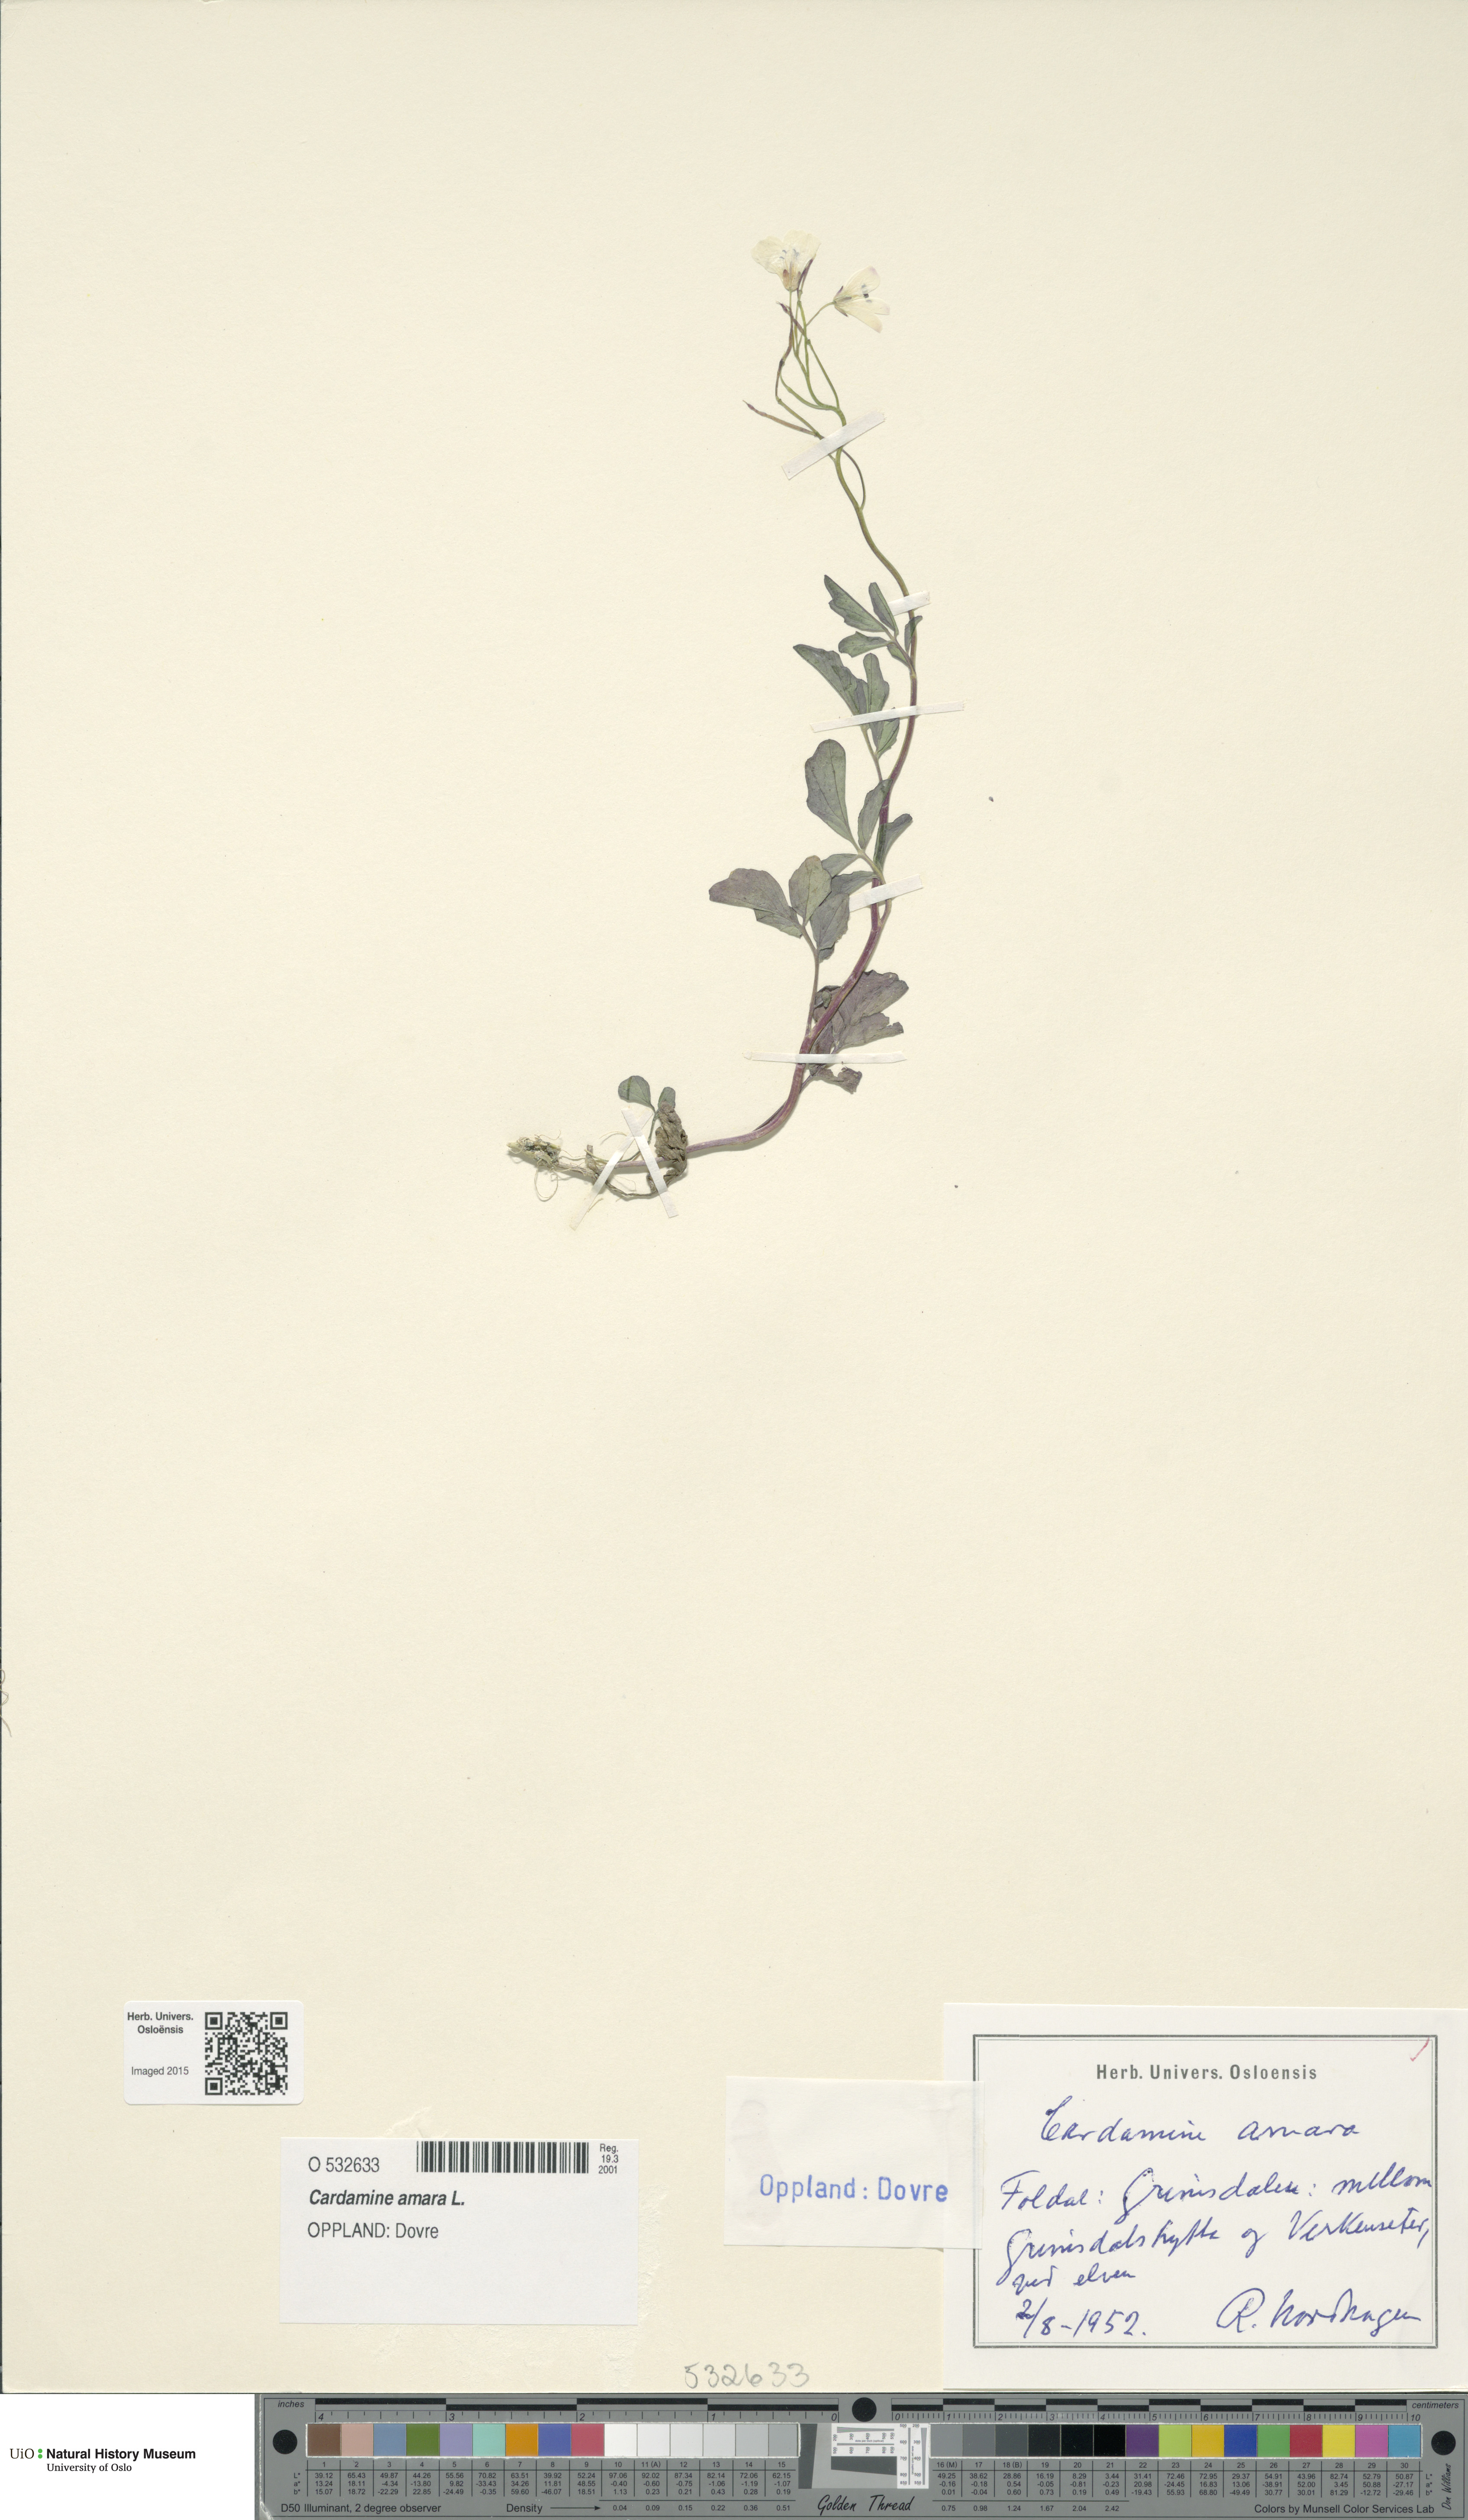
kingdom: Plantae
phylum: Tracheophyta
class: Magnoliopsida
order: Brassicales
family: Brassicaceae
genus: Cardamine
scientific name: Cardamine amara
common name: Large bitter-cress
